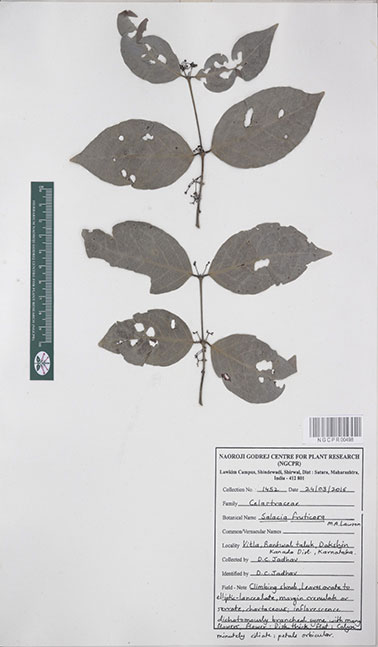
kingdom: Plantae
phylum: Tracheophyta
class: Magnoliopsida
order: Celastrales
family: Celastraceae
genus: Salacia
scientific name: Salacia fruticosa
